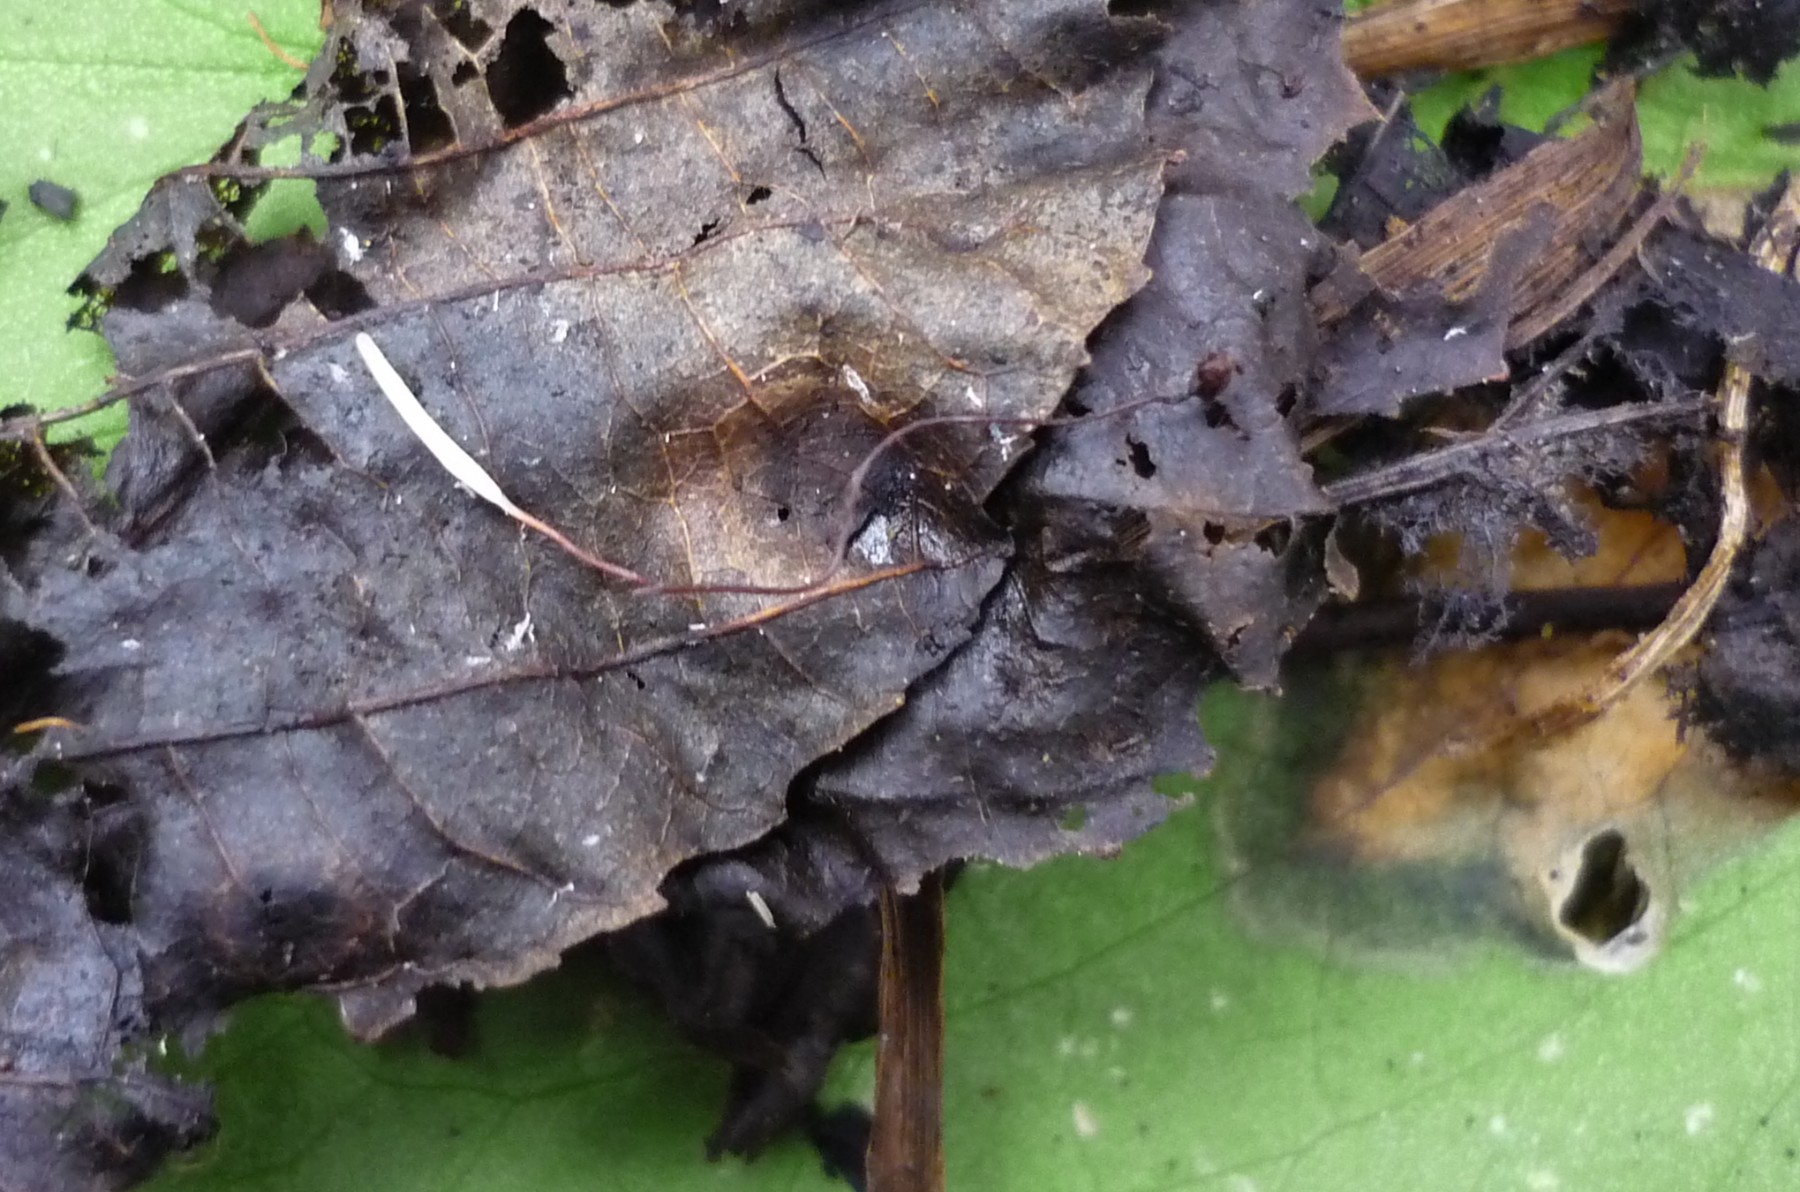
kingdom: Fungi
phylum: Basidiomycota
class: Agaricomycetes
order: Agaricales
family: Typhulaceae
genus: Typhula
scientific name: Typhula erythropus
